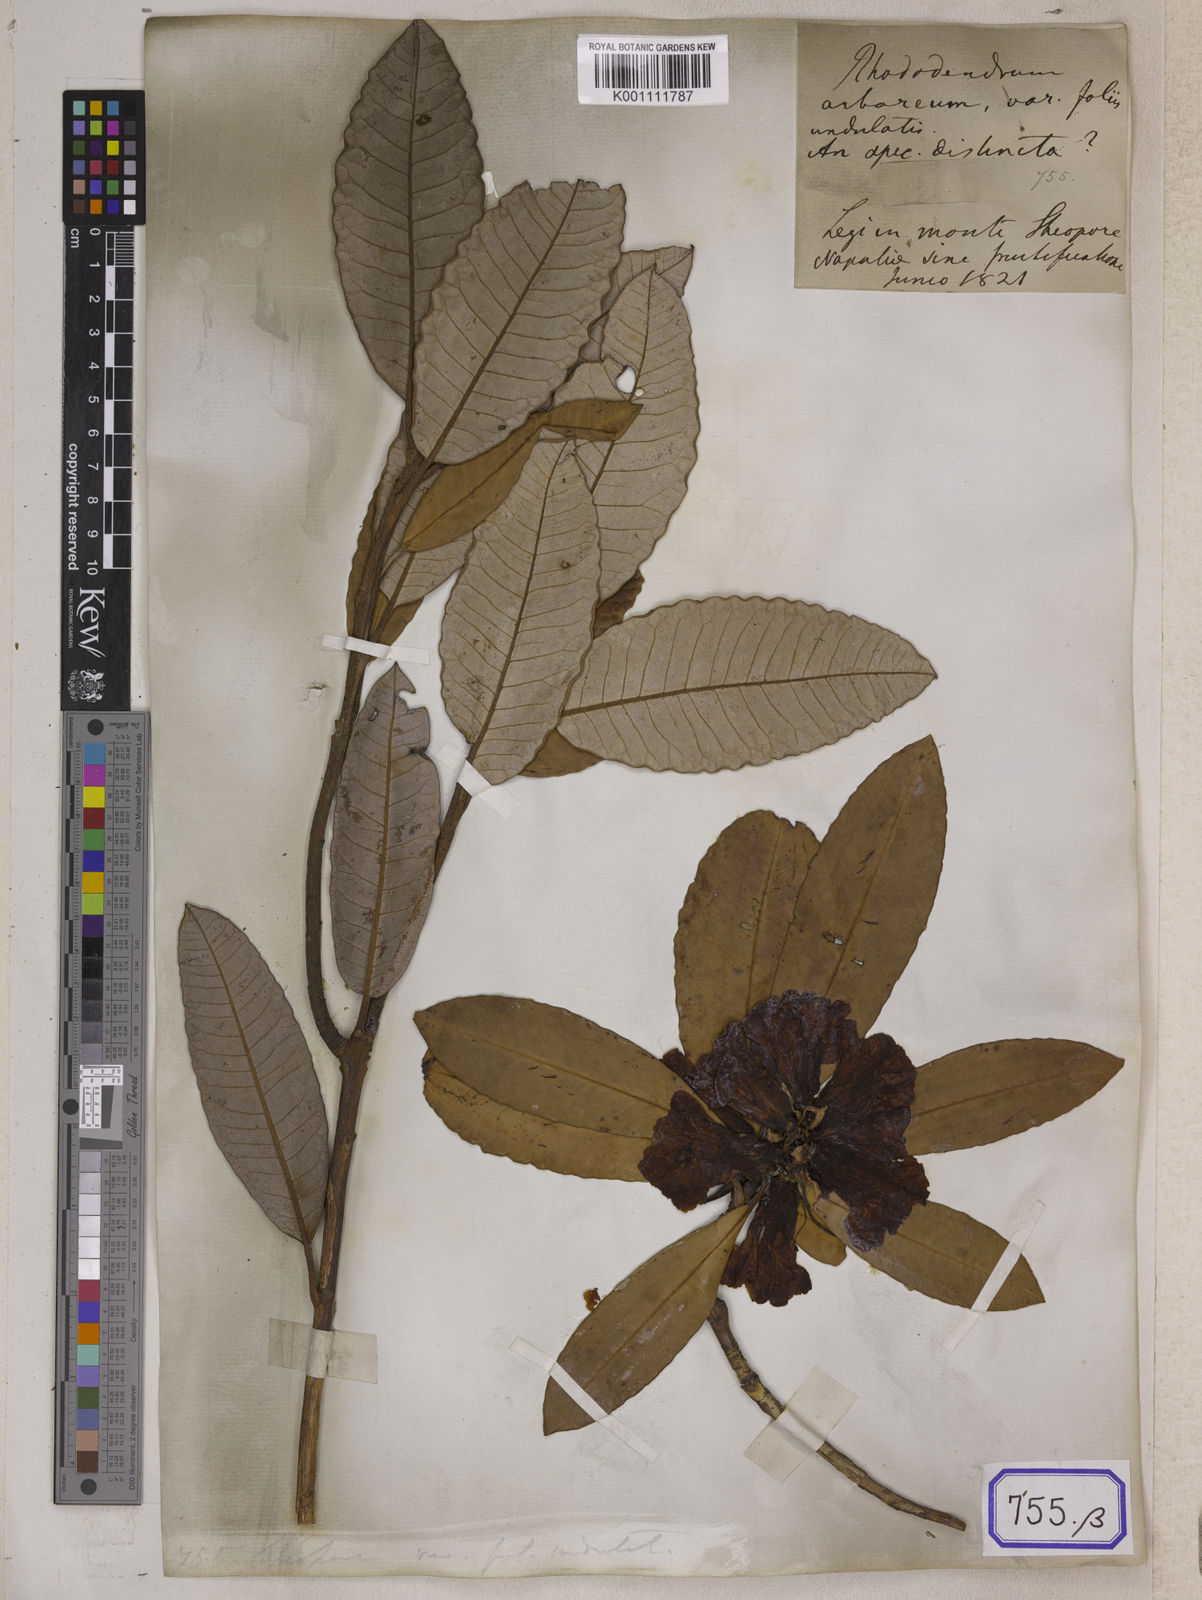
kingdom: Plantae
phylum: Tracheophyta
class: Magnoliopsida
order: Ericales
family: Ericaceae
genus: Rhododendron
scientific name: Rhododendron
